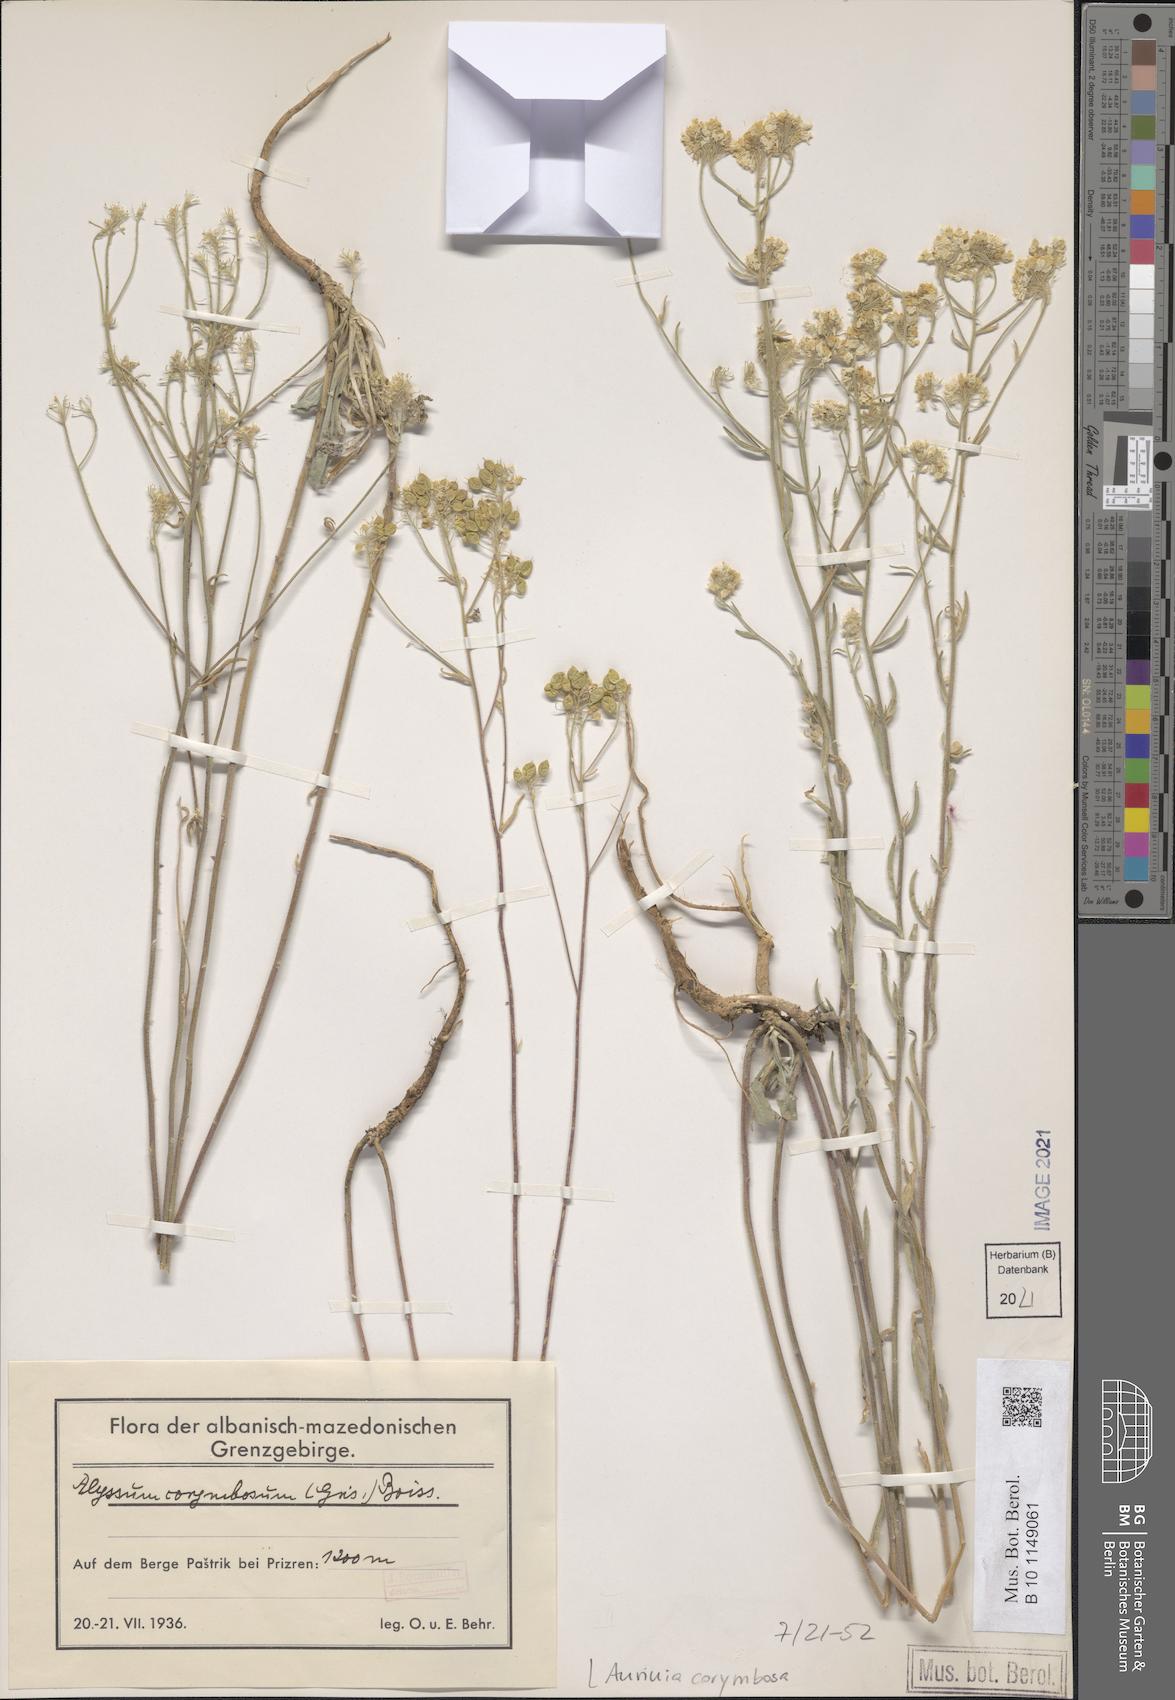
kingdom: Plantae
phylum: Tracheophyta
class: Magnoliopsida
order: Brassicales
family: Brassicaceae
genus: Aurinia
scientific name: Aurinia corymbosa
